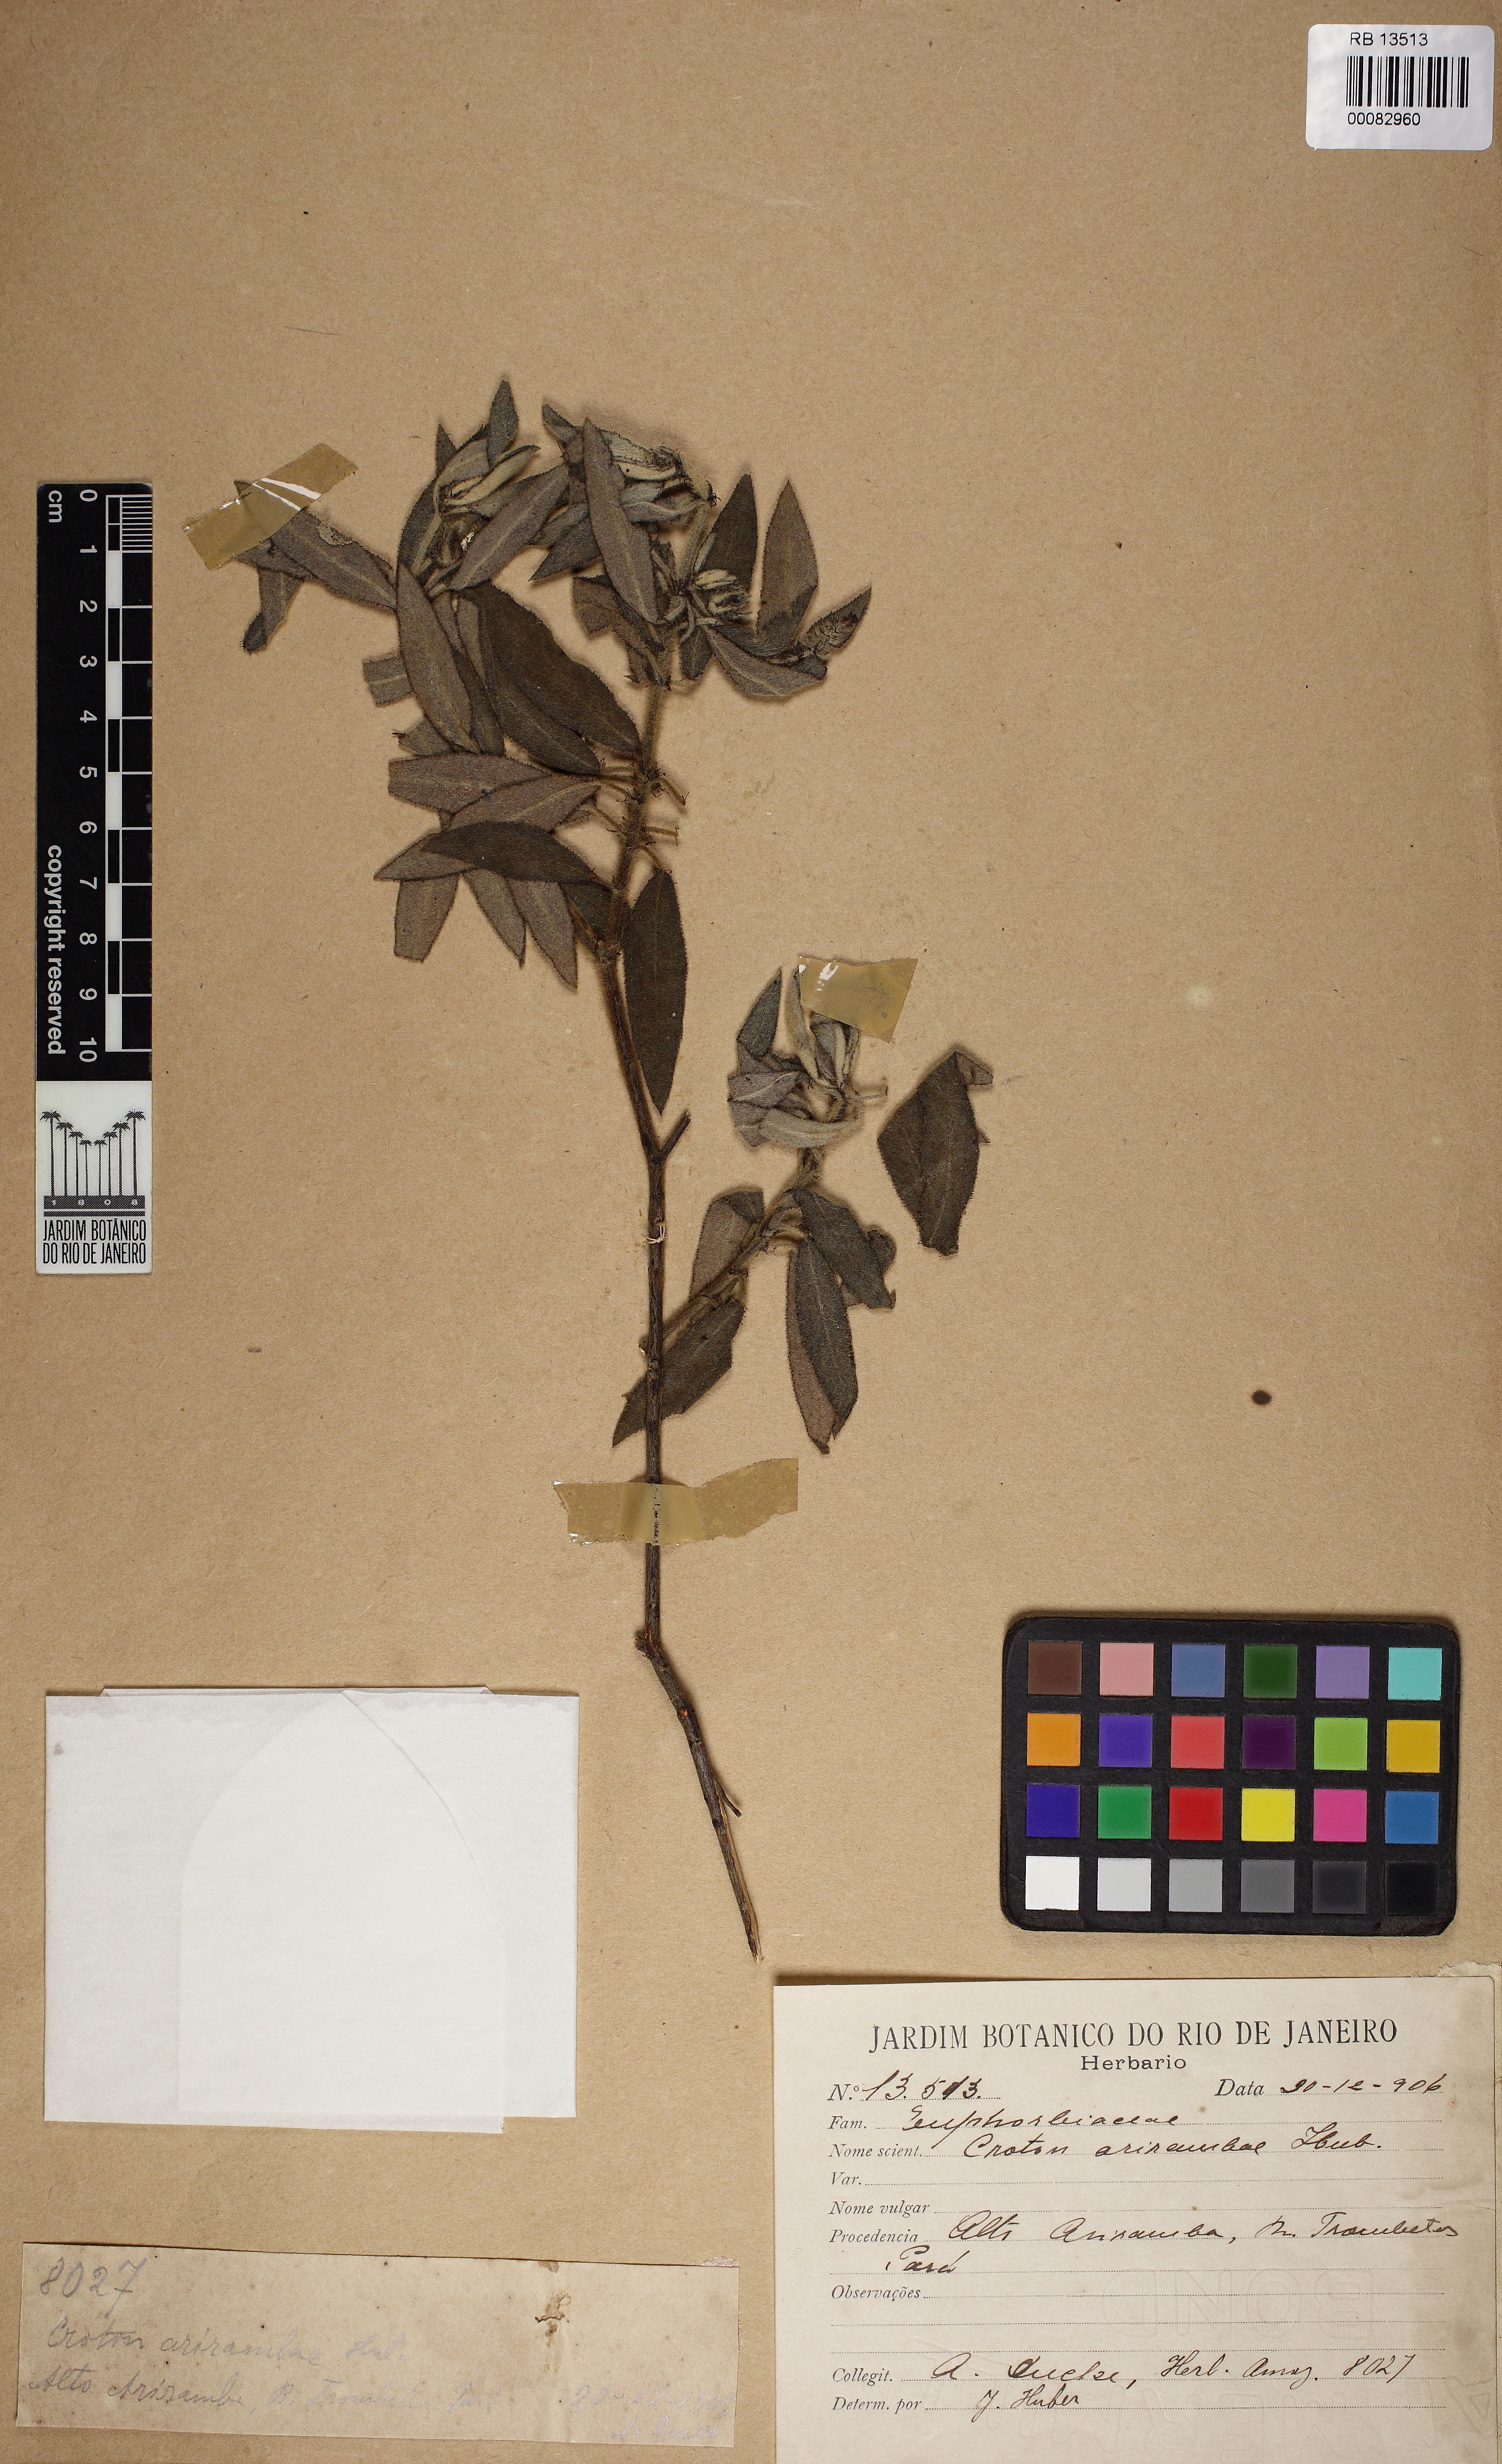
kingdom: Plantae
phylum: Tracheophyta
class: Magnoliopsida
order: Malpighiales
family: Euphorbiaceae
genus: Croton
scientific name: Croton arirambae
